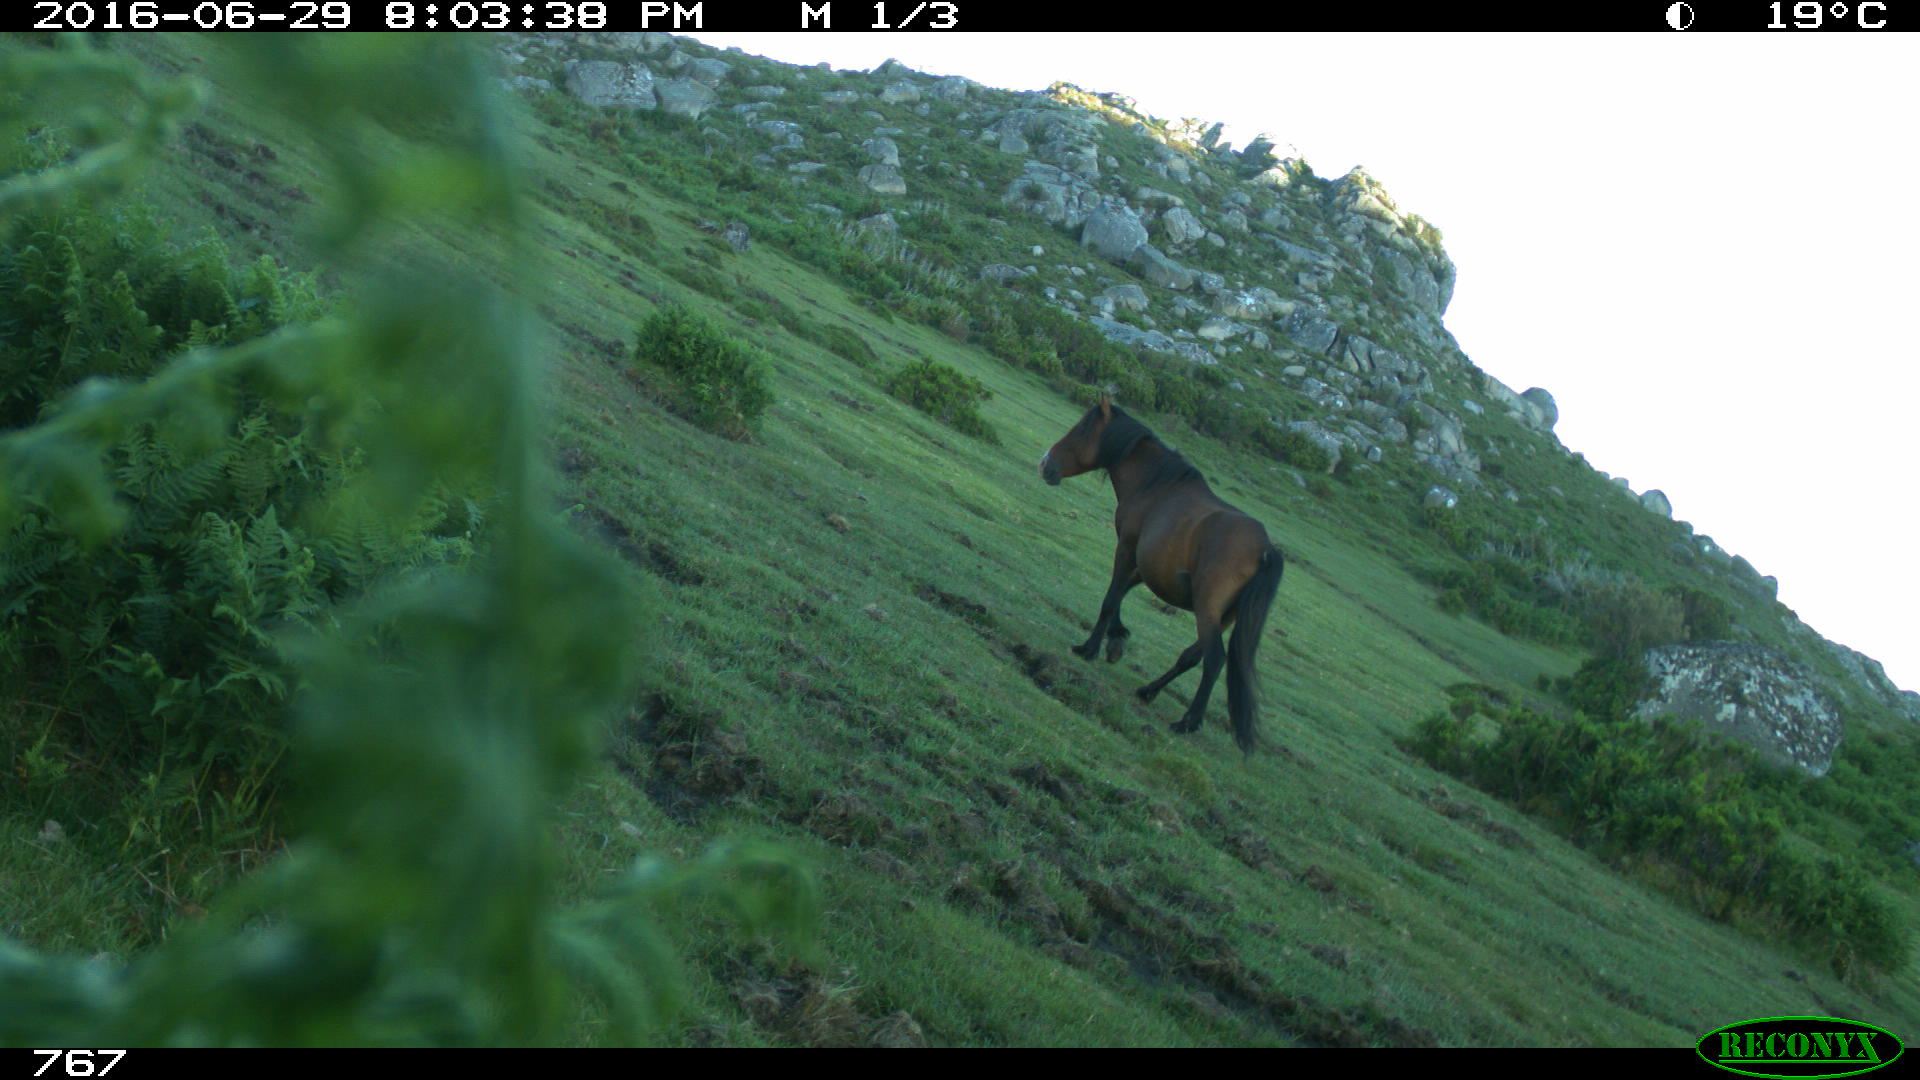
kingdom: Animalia
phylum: Chordata
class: Mammalia
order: Perissodactyla
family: Equidae
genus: Equus
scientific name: Equus caballus
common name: Horse
